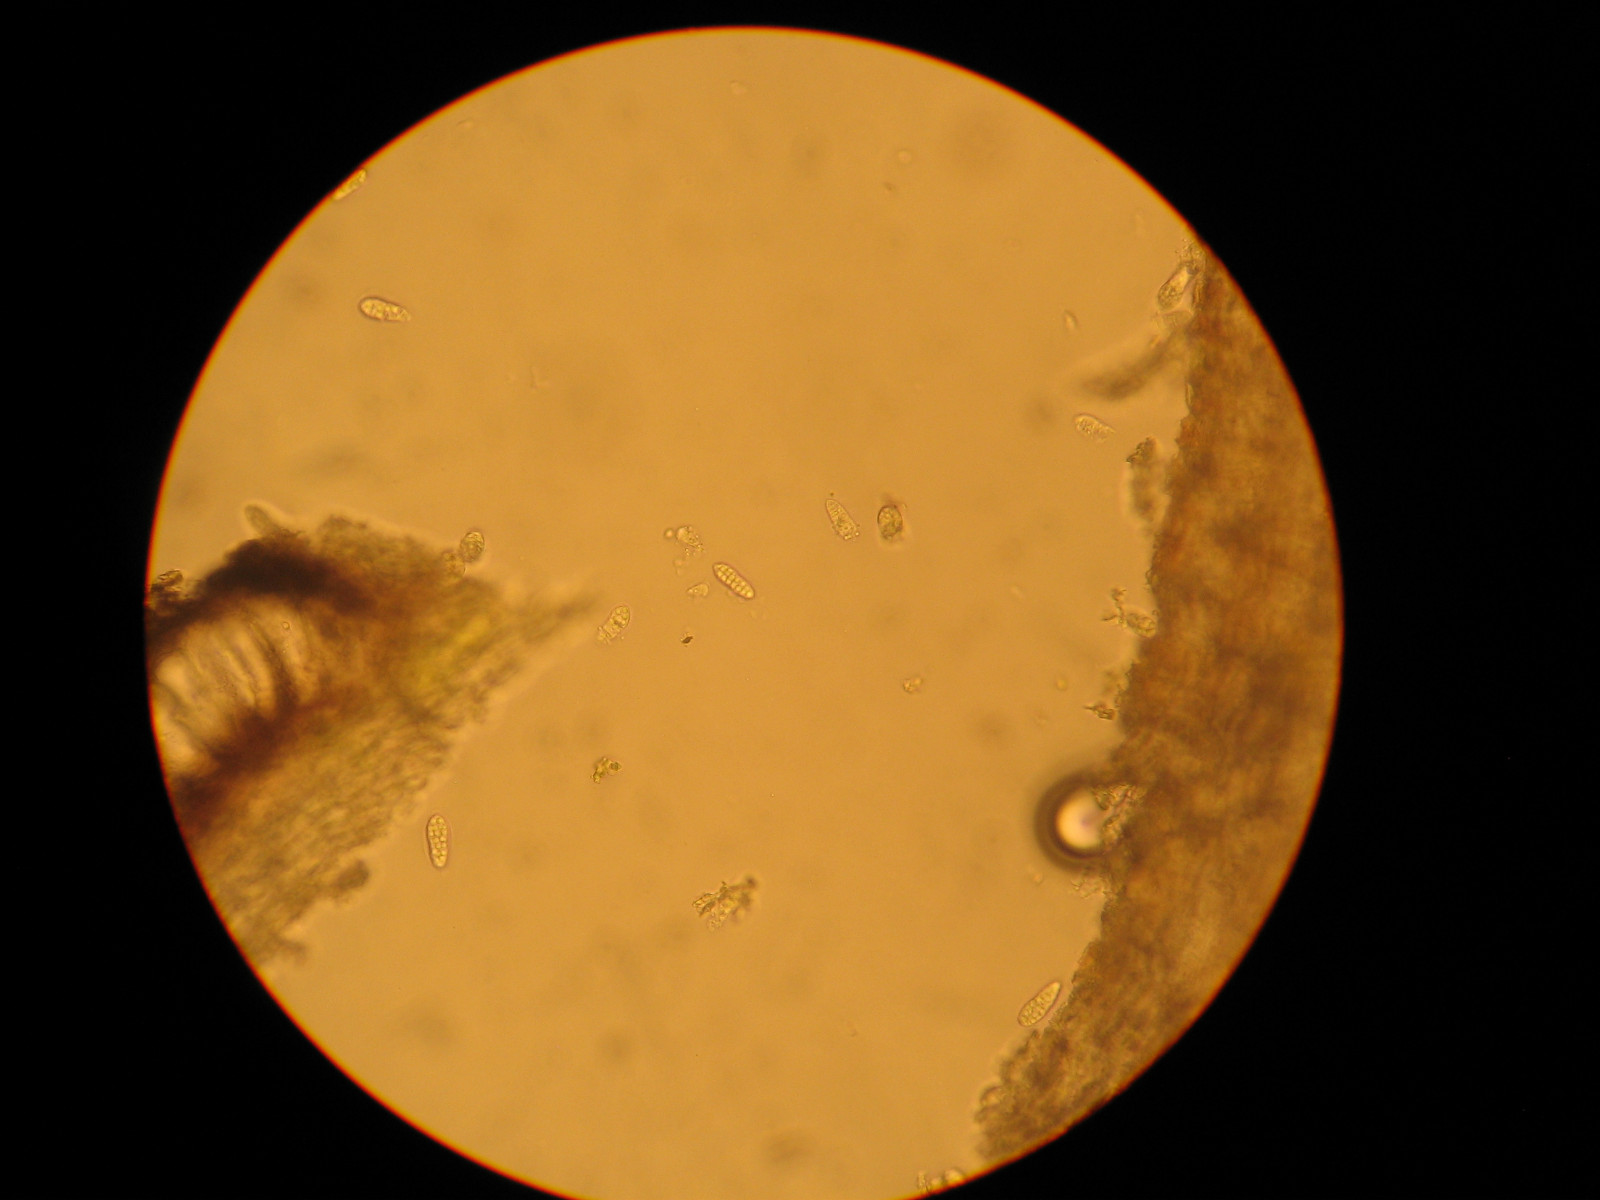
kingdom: Fungi
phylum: Ascomycota
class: Arthoniomycetes
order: Arthoniales
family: Arthoniaceae
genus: Arthothelium
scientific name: Arthothelium ruanum
